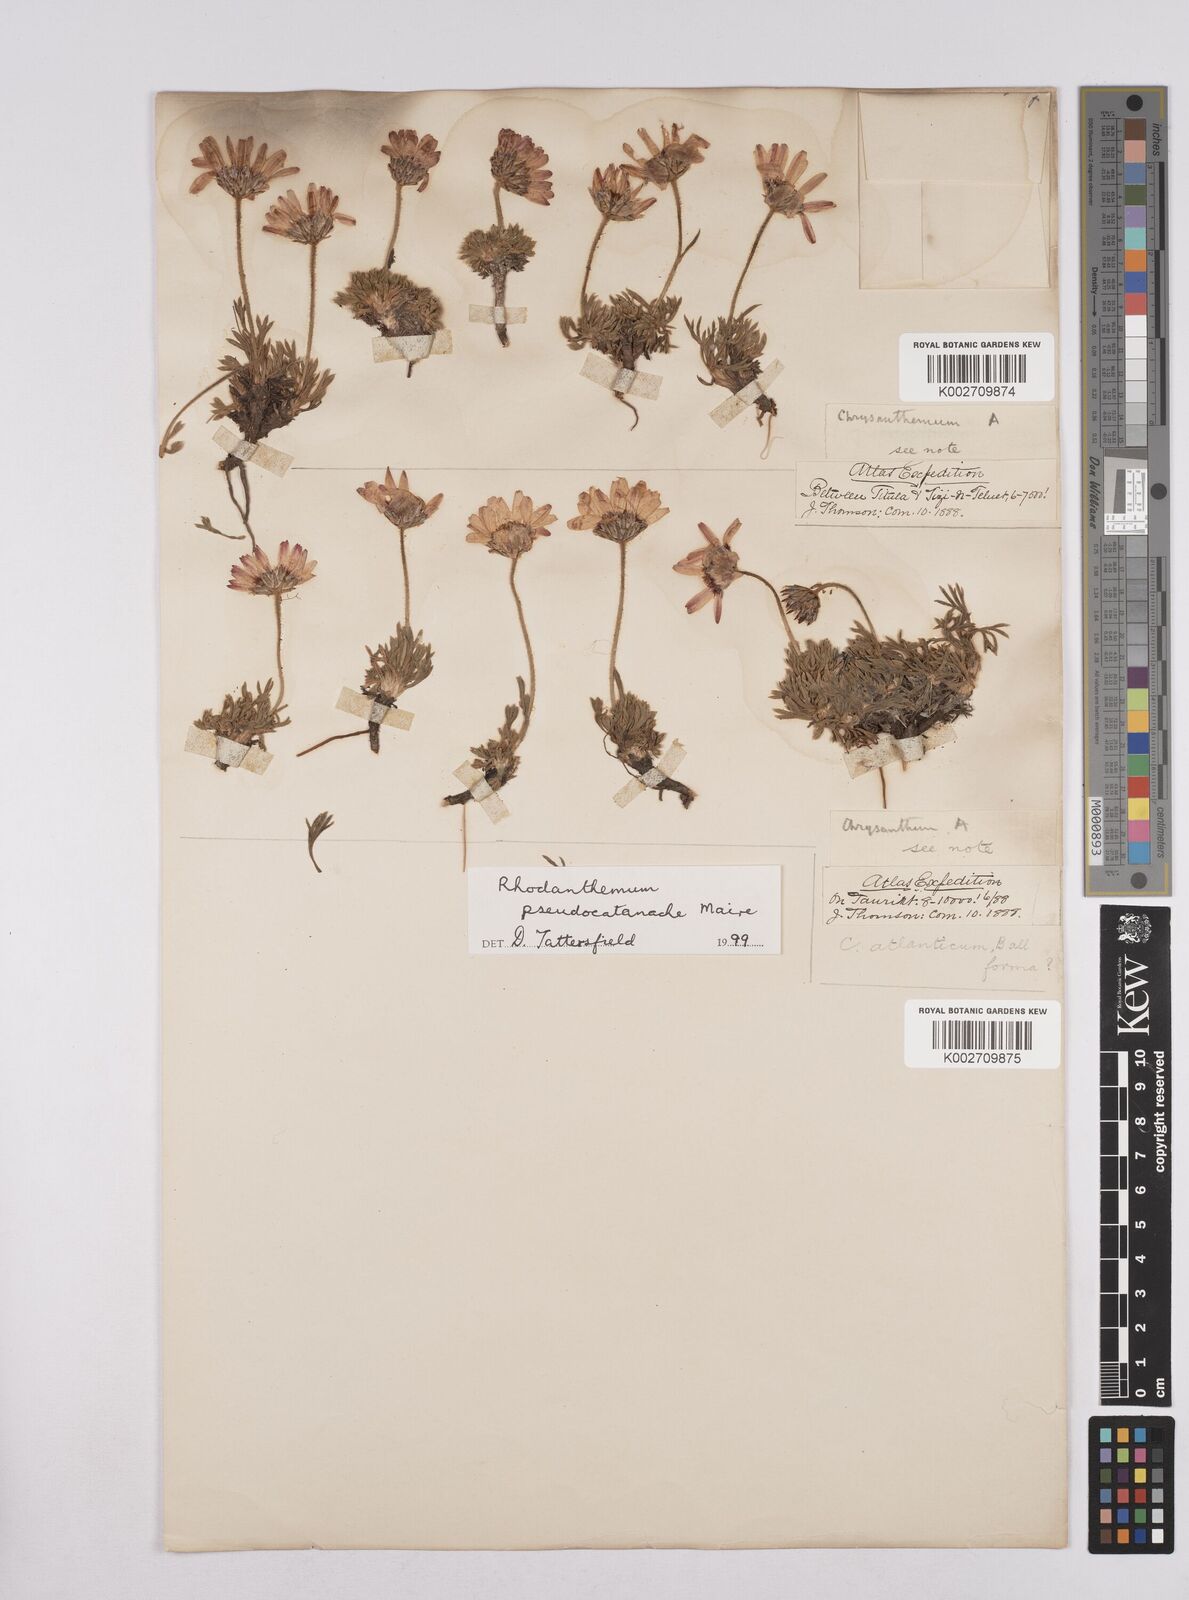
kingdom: Plantae
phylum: Tracheophyta
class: Magnoliopsida
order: Asterales
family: Asteraceae
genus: Rhodanthemum
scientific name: Rhodanthemum pseudocatananche
